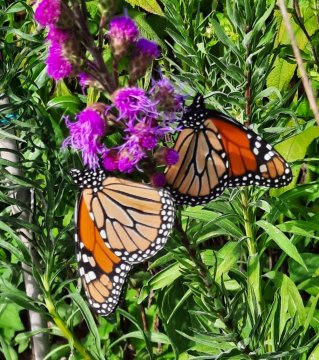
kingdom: Animalia
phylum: Arthropoda
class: Insecta
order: Lepidoptera
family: Nymphalidae
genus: Danaus
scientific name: Danaus plexippus
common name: Monarch
